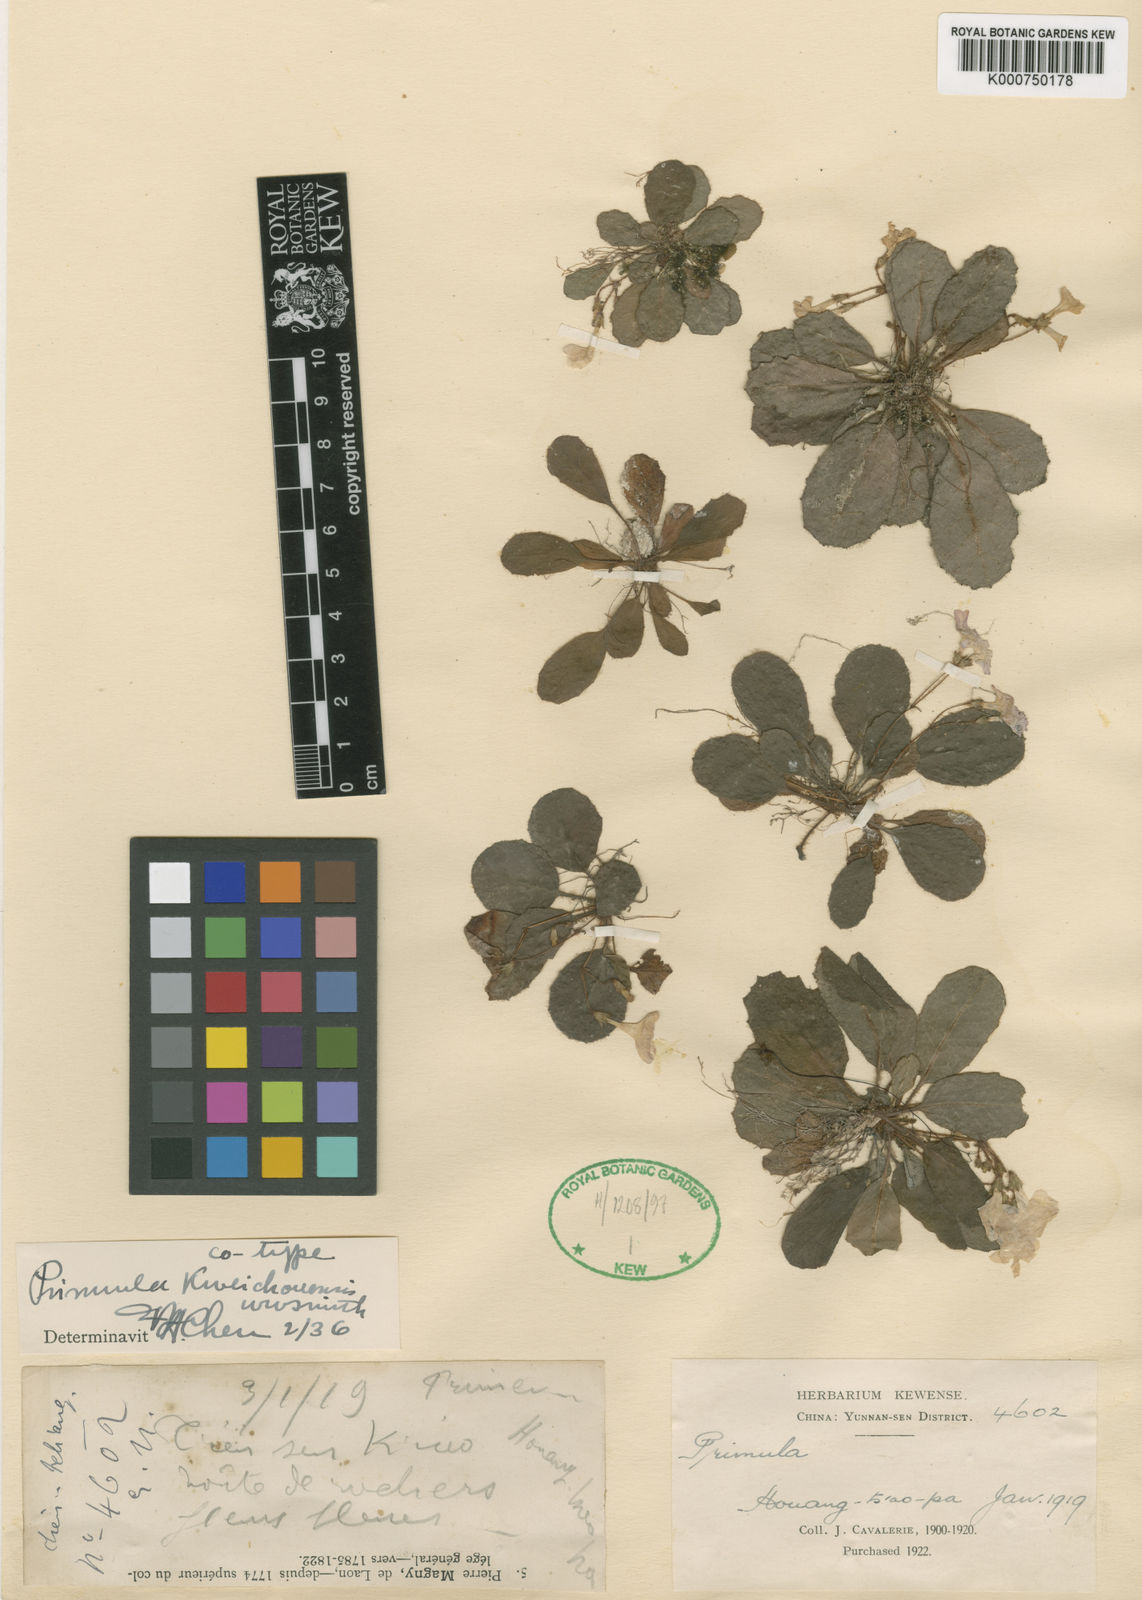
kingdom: Plantae
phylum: Tracheophyta
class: Magnoliopsida
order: Ericales
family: Primulaceae
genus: Primula
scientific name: Primula kweichouensis
